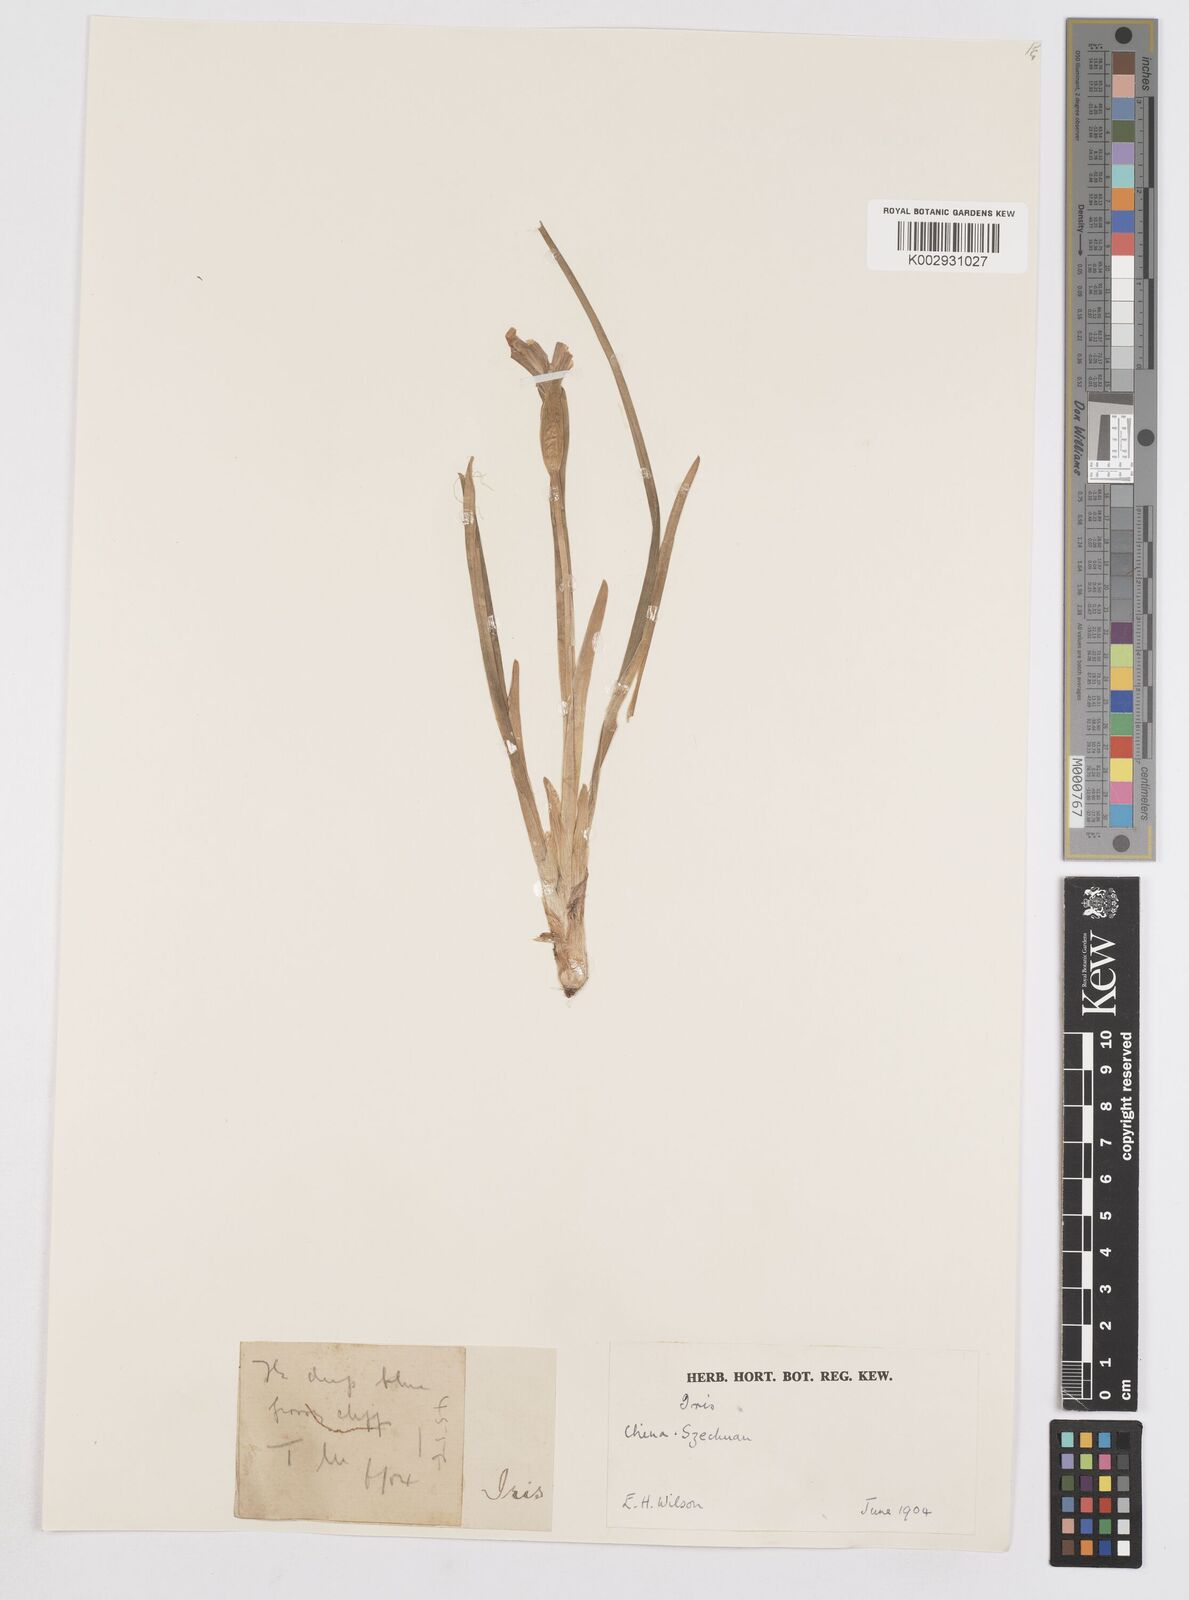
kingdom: Plantae
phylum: Tracheophyta
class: Liliopsida
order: Asparagales
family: Iridaceae
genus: Iris
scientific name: Iris
